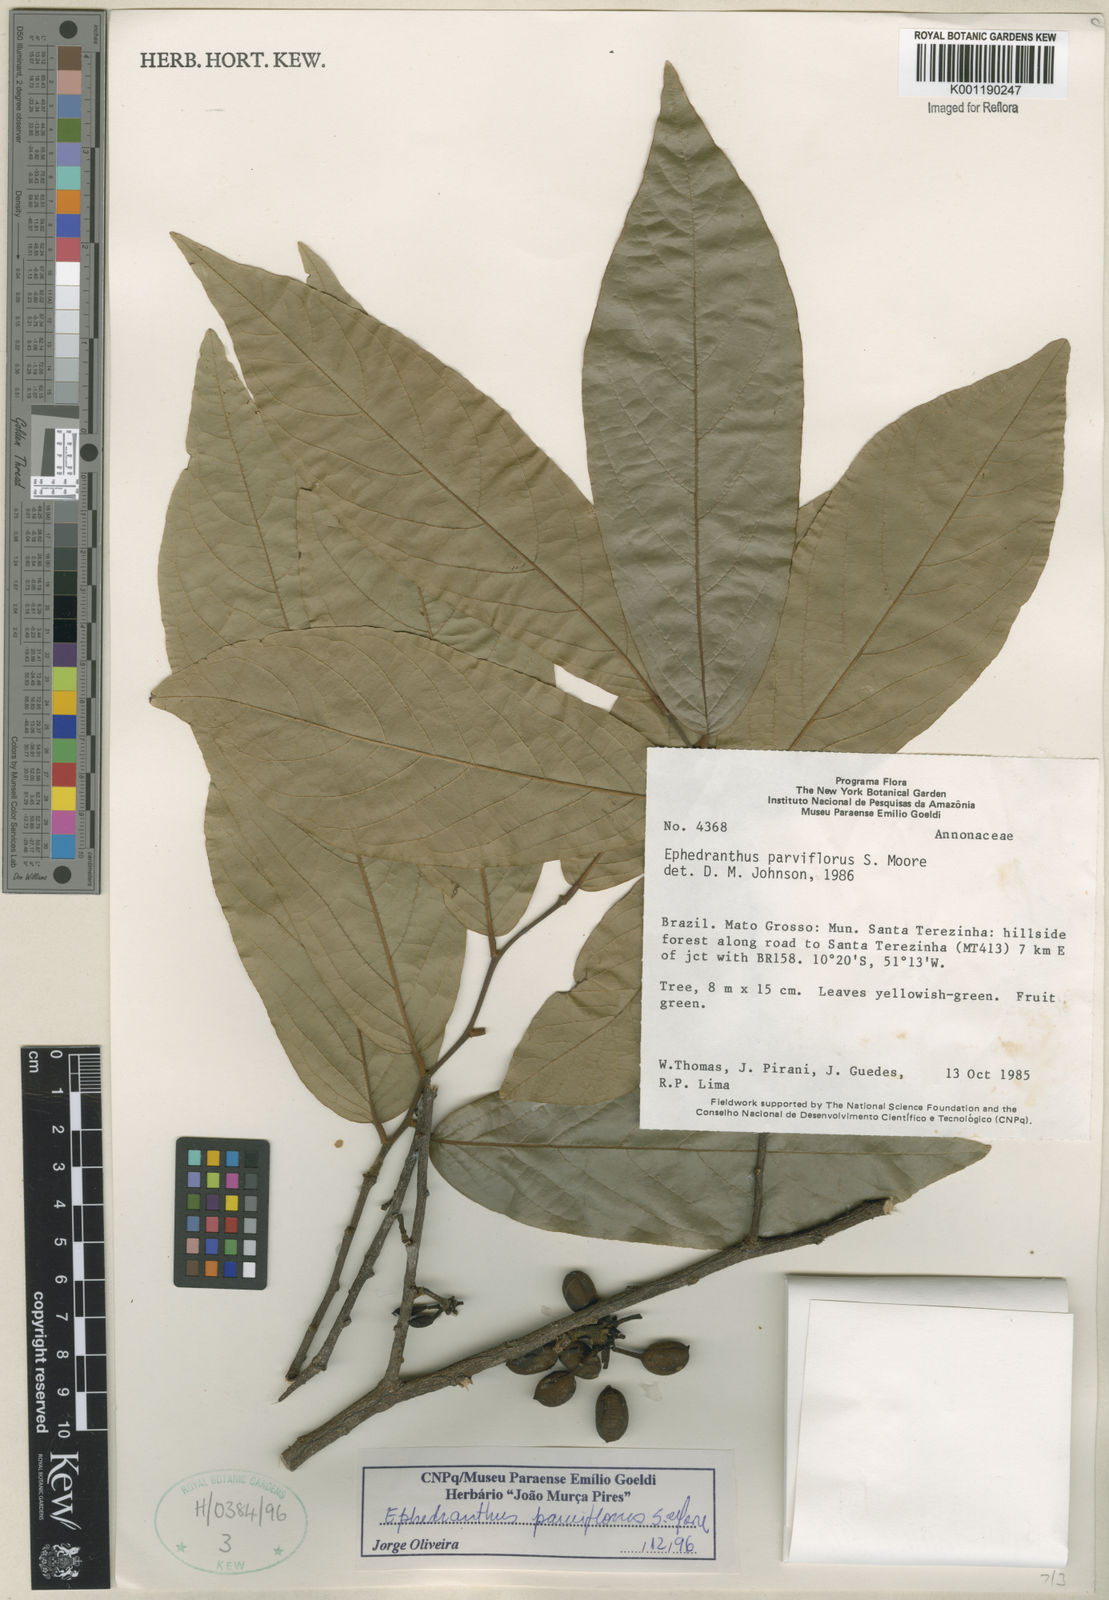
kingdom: Plantae
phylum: Tracheophyta
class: Magnoliopsida
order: Magnoliales
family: Annonaceae
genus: Ephedranthus
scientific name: Ephedranthus parviflorus
